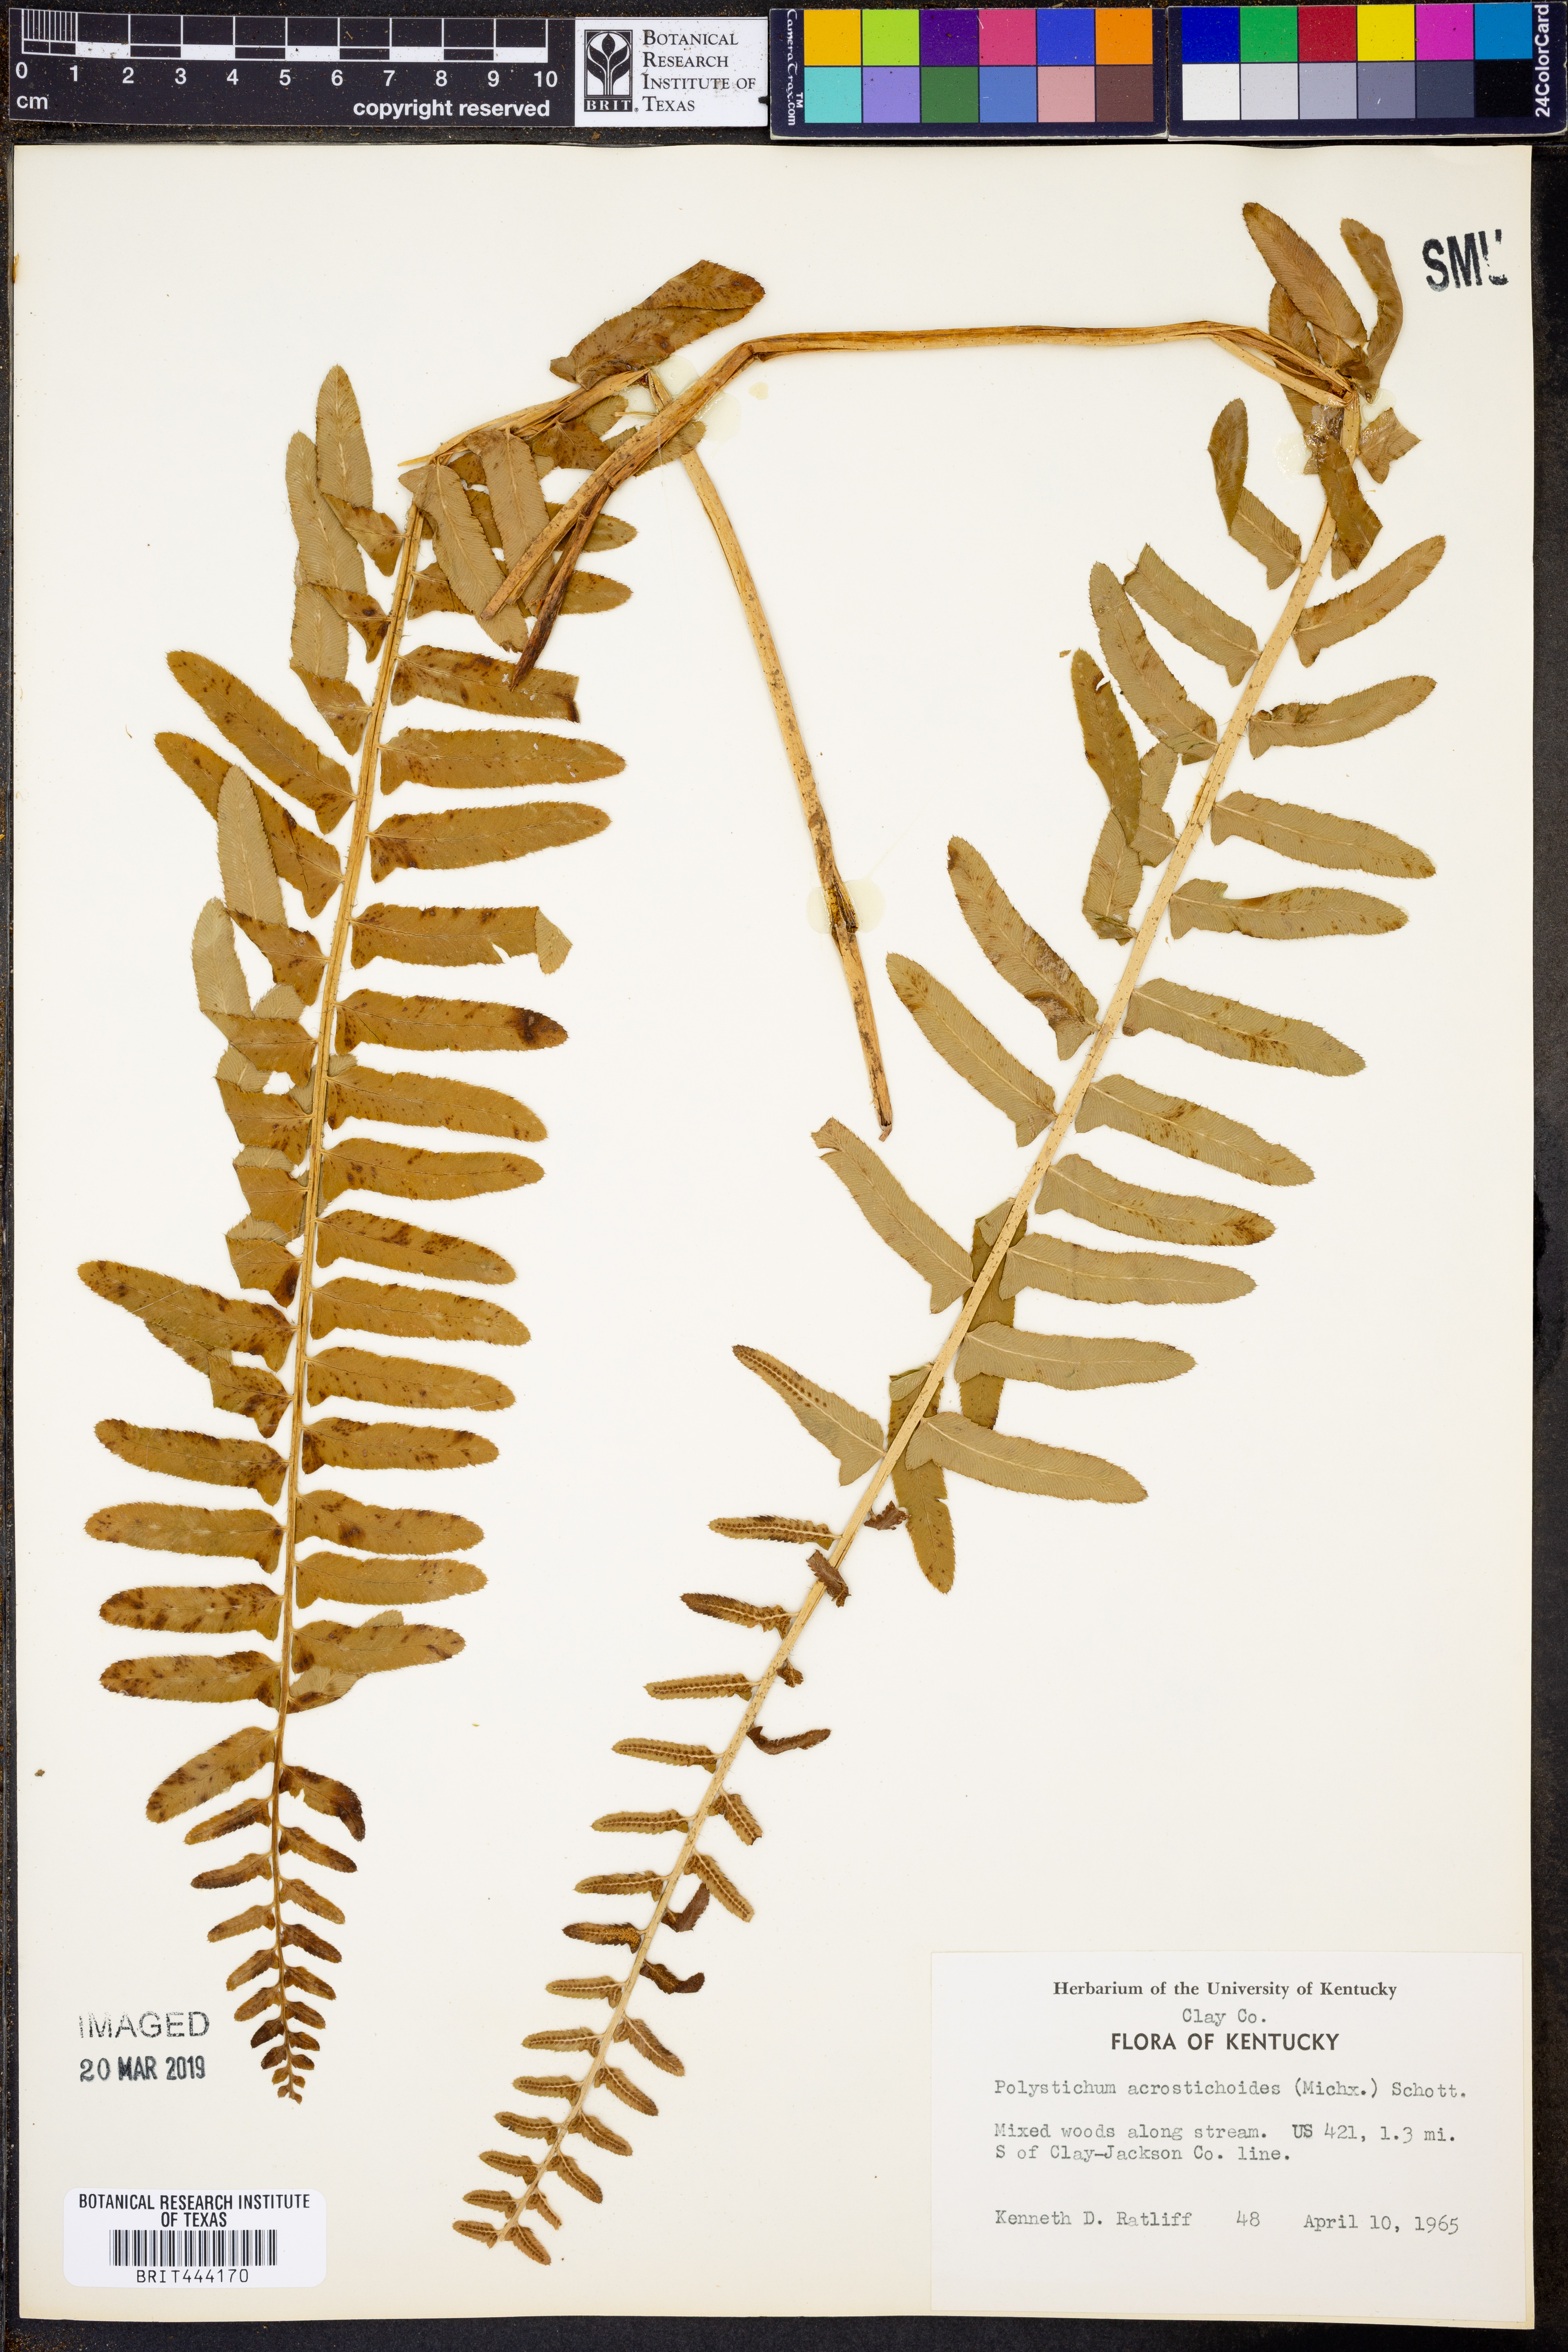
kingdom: Plantae
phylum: Tracheophyta
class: Polypodiopsida
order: Polypodiales
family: Dryopteridaceae
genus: Polystichum
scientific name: Polystichum acrostichoides
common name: Christmas fern
